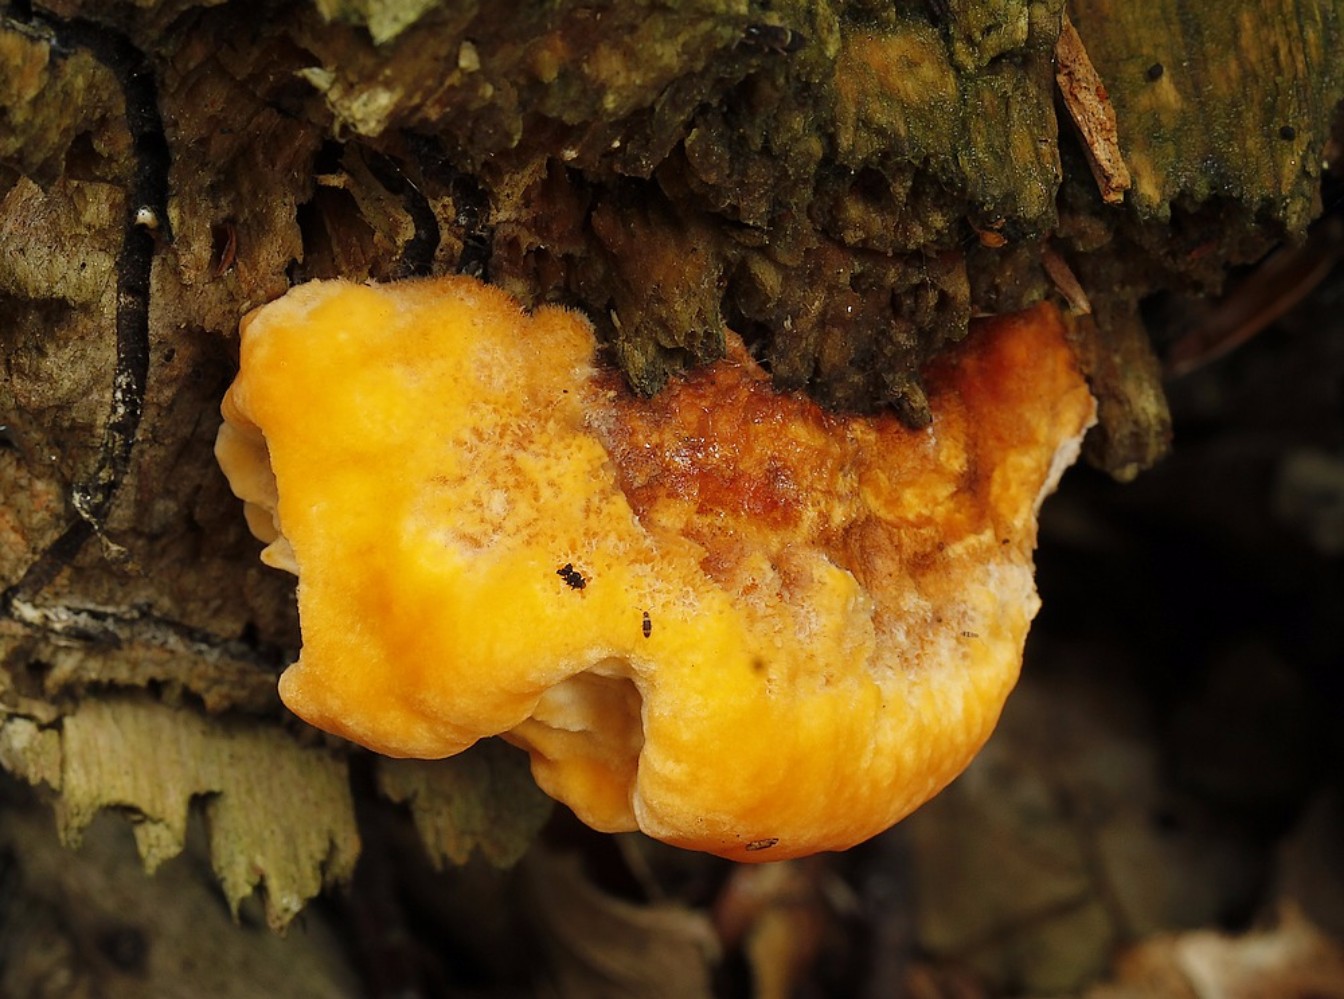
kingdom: Fungi
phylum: Basidiomycota
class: Agaricomycetes
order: Polyporales
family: Pycnoporellaceae
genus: Pycnoporellus
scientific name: Pycnoporellus fulgens
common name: flammeporesvamp
